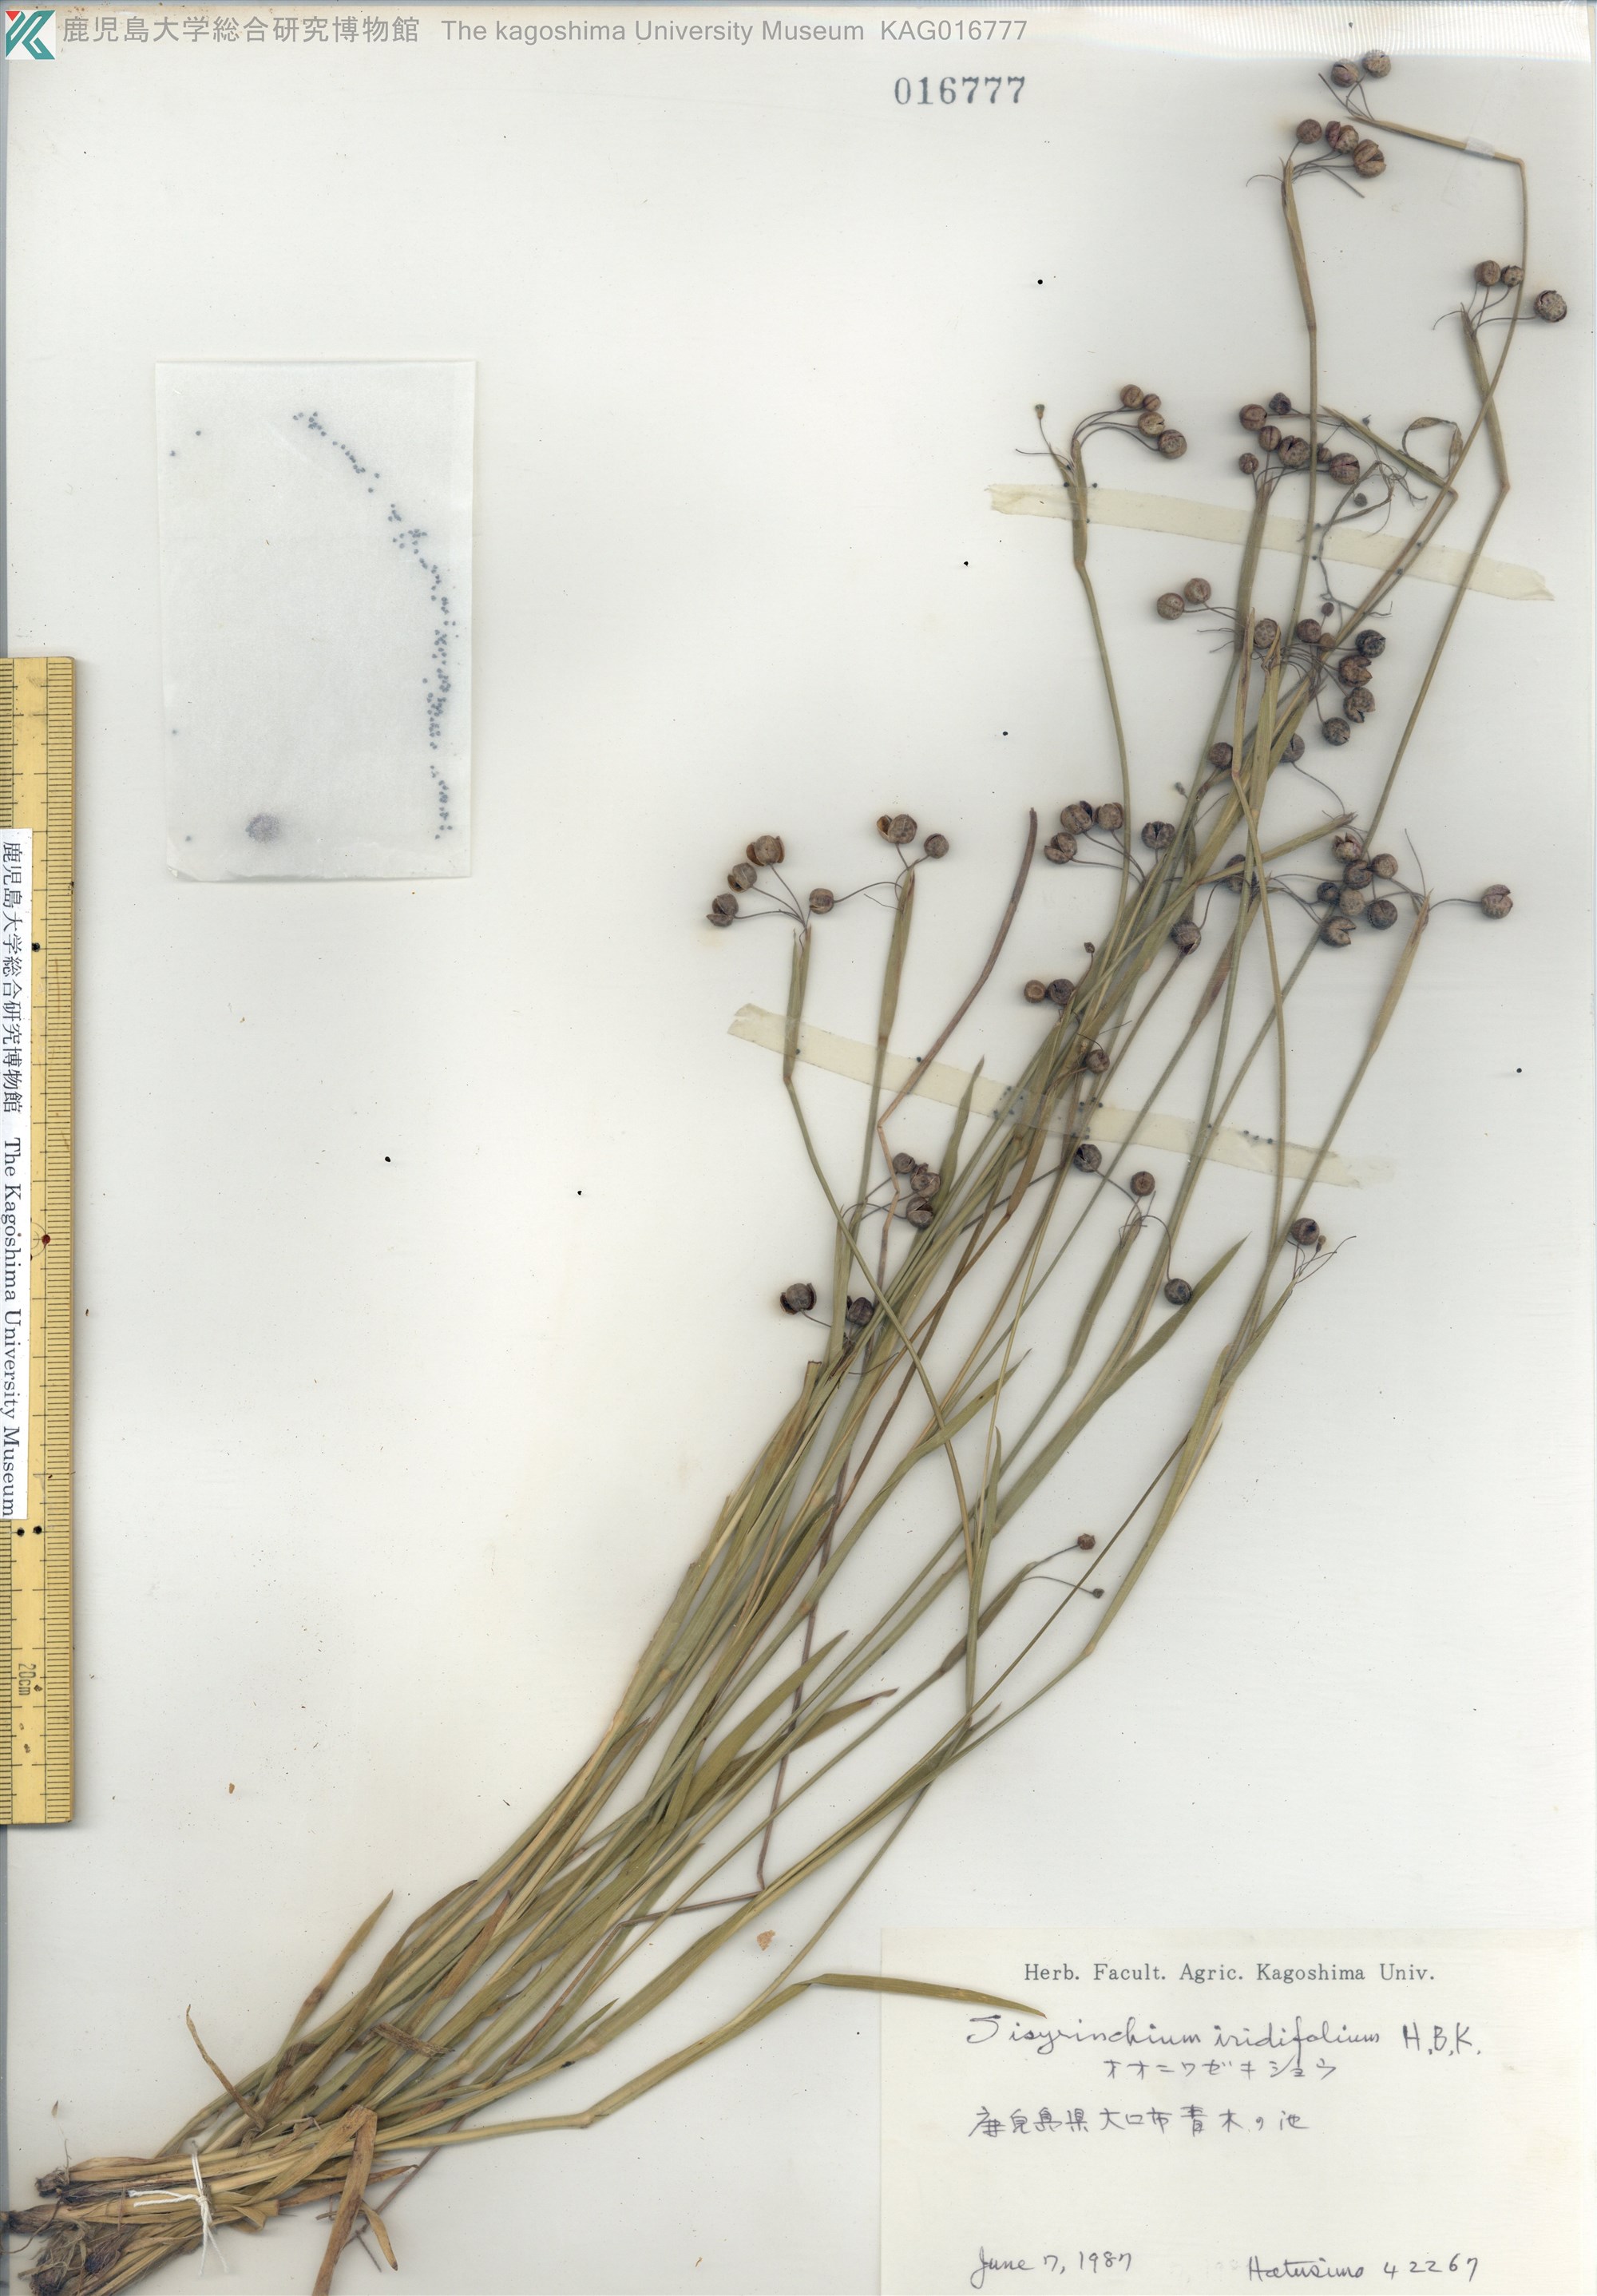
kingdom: Plantae
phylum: Tracheophyta
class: Liliopsida
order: Asparagales
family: Iridaceae
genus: Sisyrinchium
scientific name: Sisyrinchium micranthum
